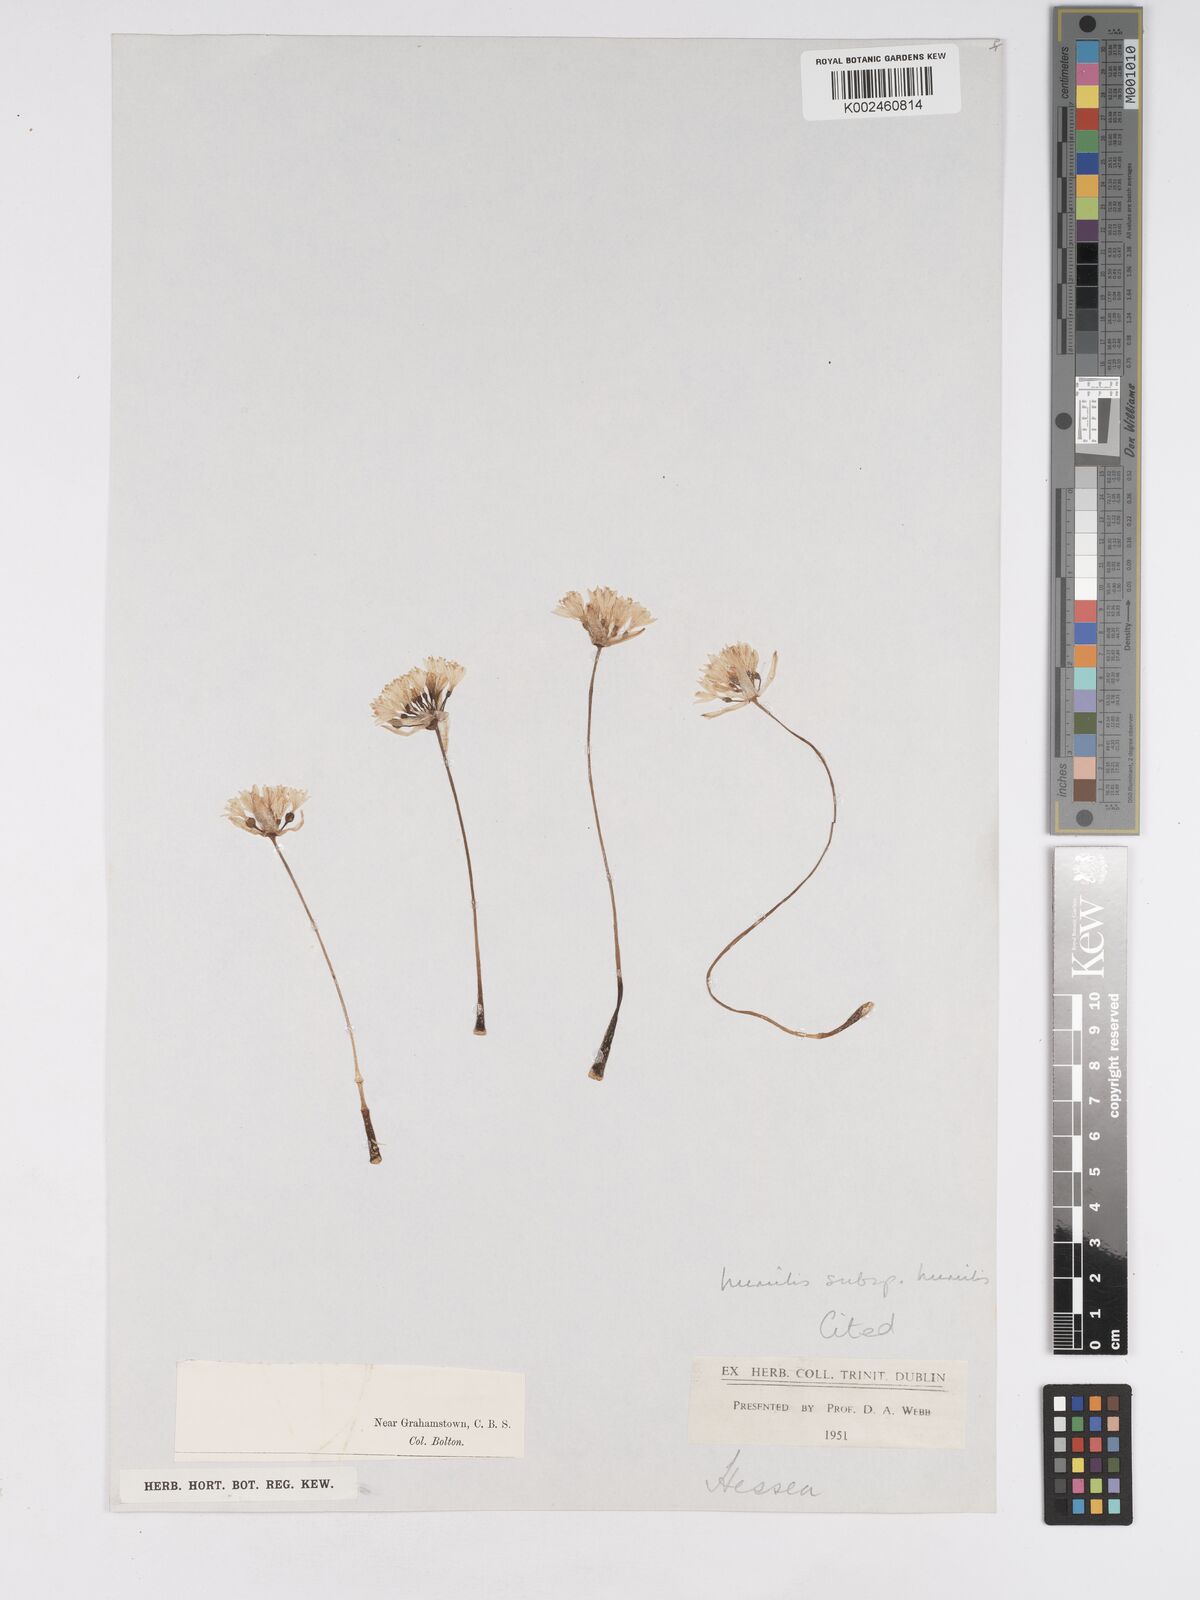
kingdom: Plantae
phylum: Tracheophyta
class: Liliopsida
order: Asparagales
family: Amaryllidaceae
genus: Haemanthus
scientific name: Haemanthus humilis
